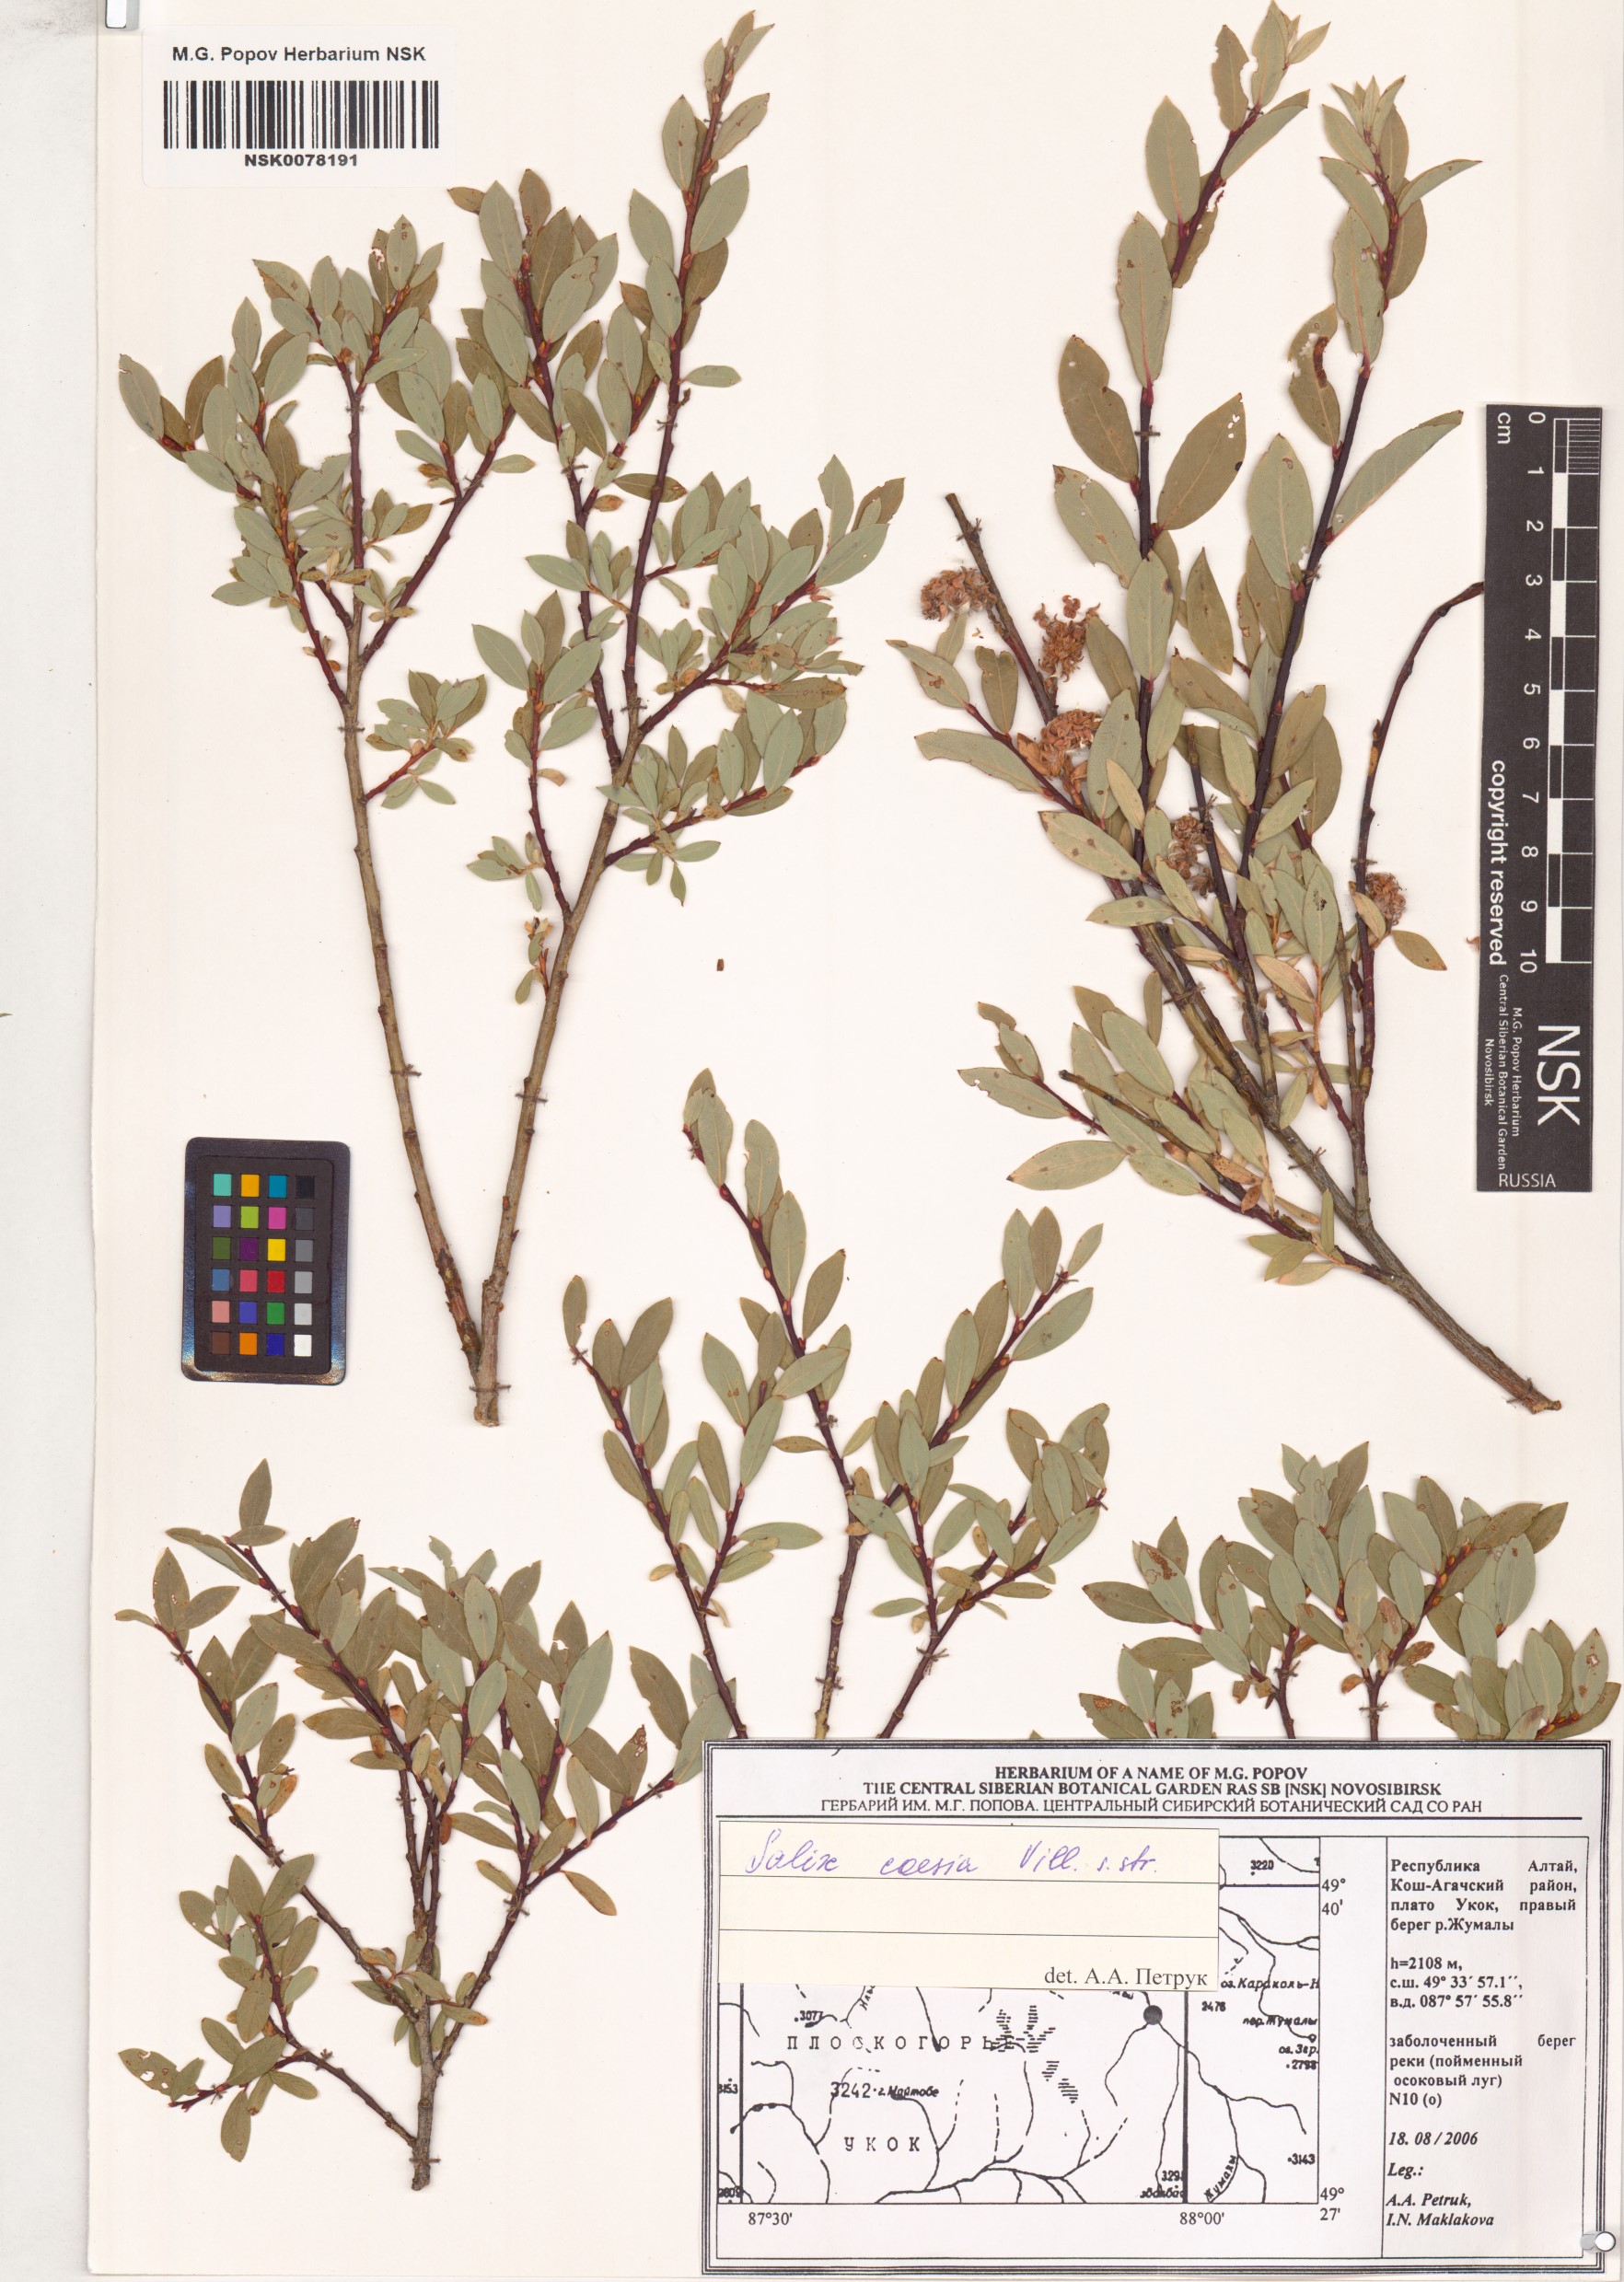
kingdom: Plantae
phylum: Tracheophyta
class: Magnoliopsida
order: Malpighiales
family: Salicaceae
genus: Salix
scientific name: Salix caesia
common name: Blue willow
